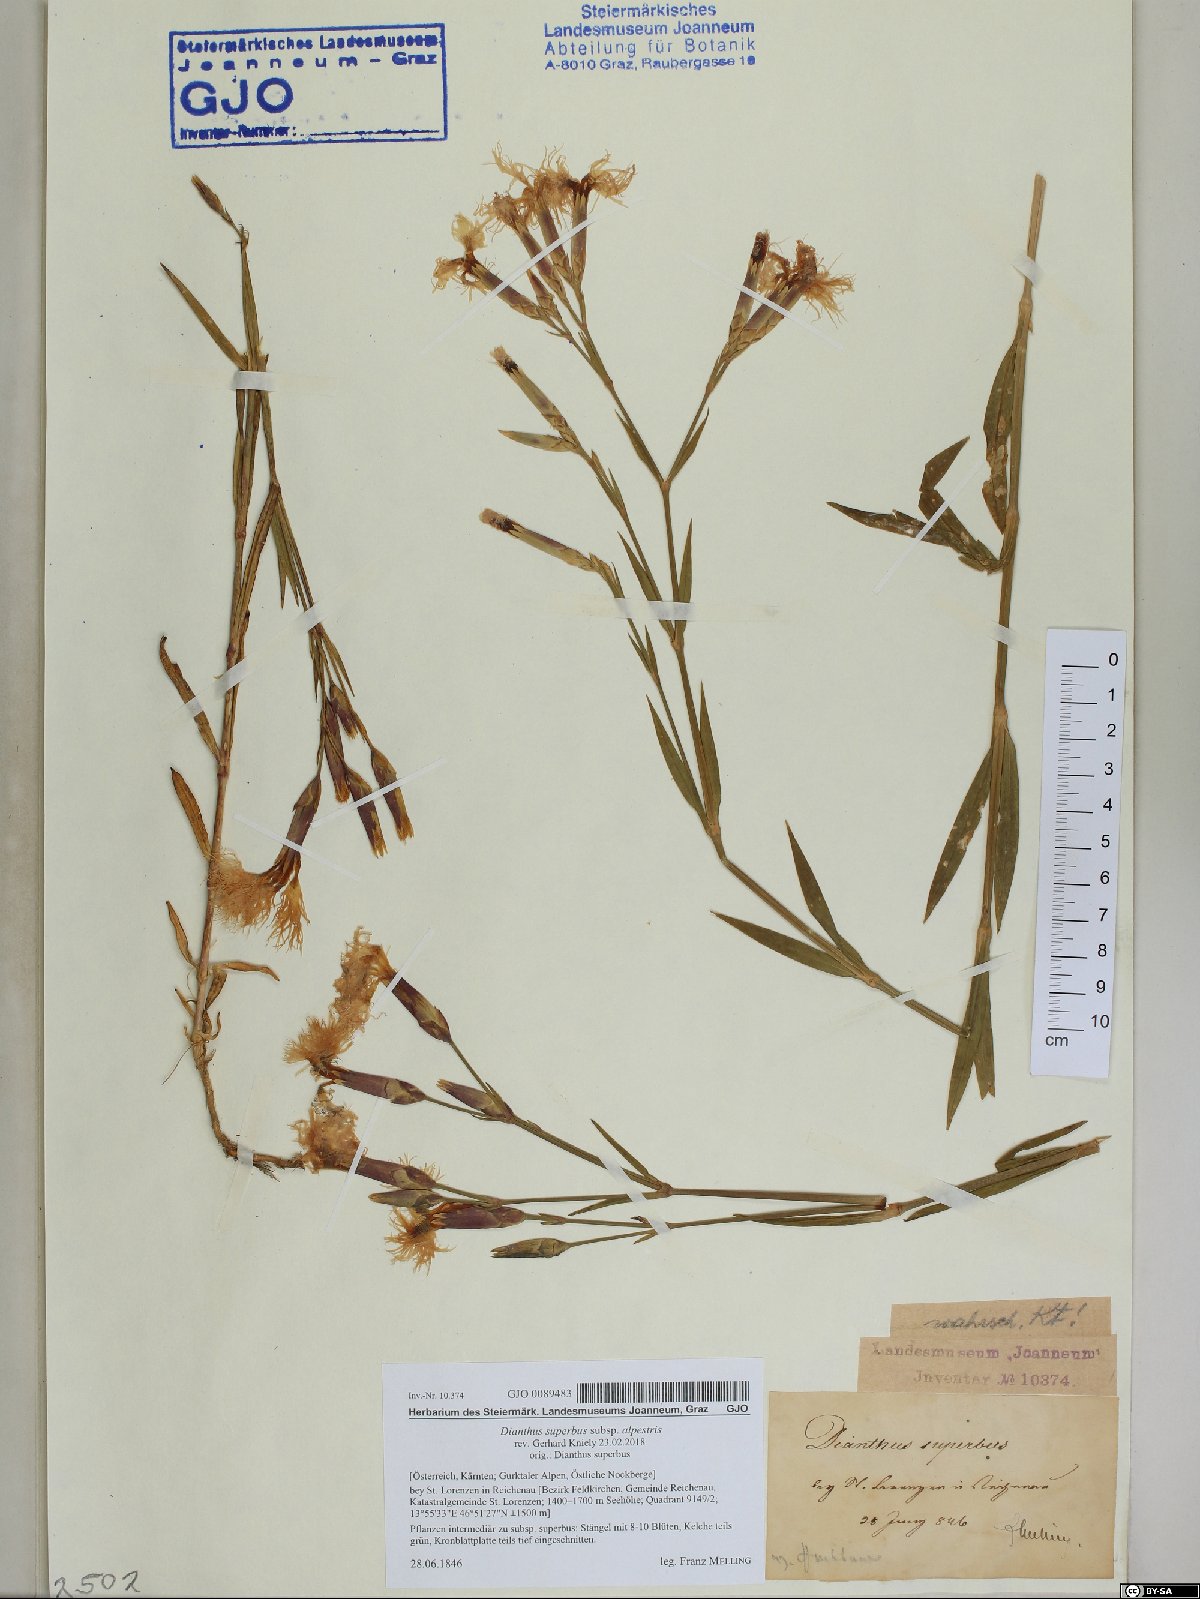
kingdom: Plantae
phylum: Tracheophyta
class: Magnoliopsida
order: Caryophyllales
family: Caryophyllaceae
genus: Dianthus
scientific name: Dianthus superbus
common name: Fringed pink
